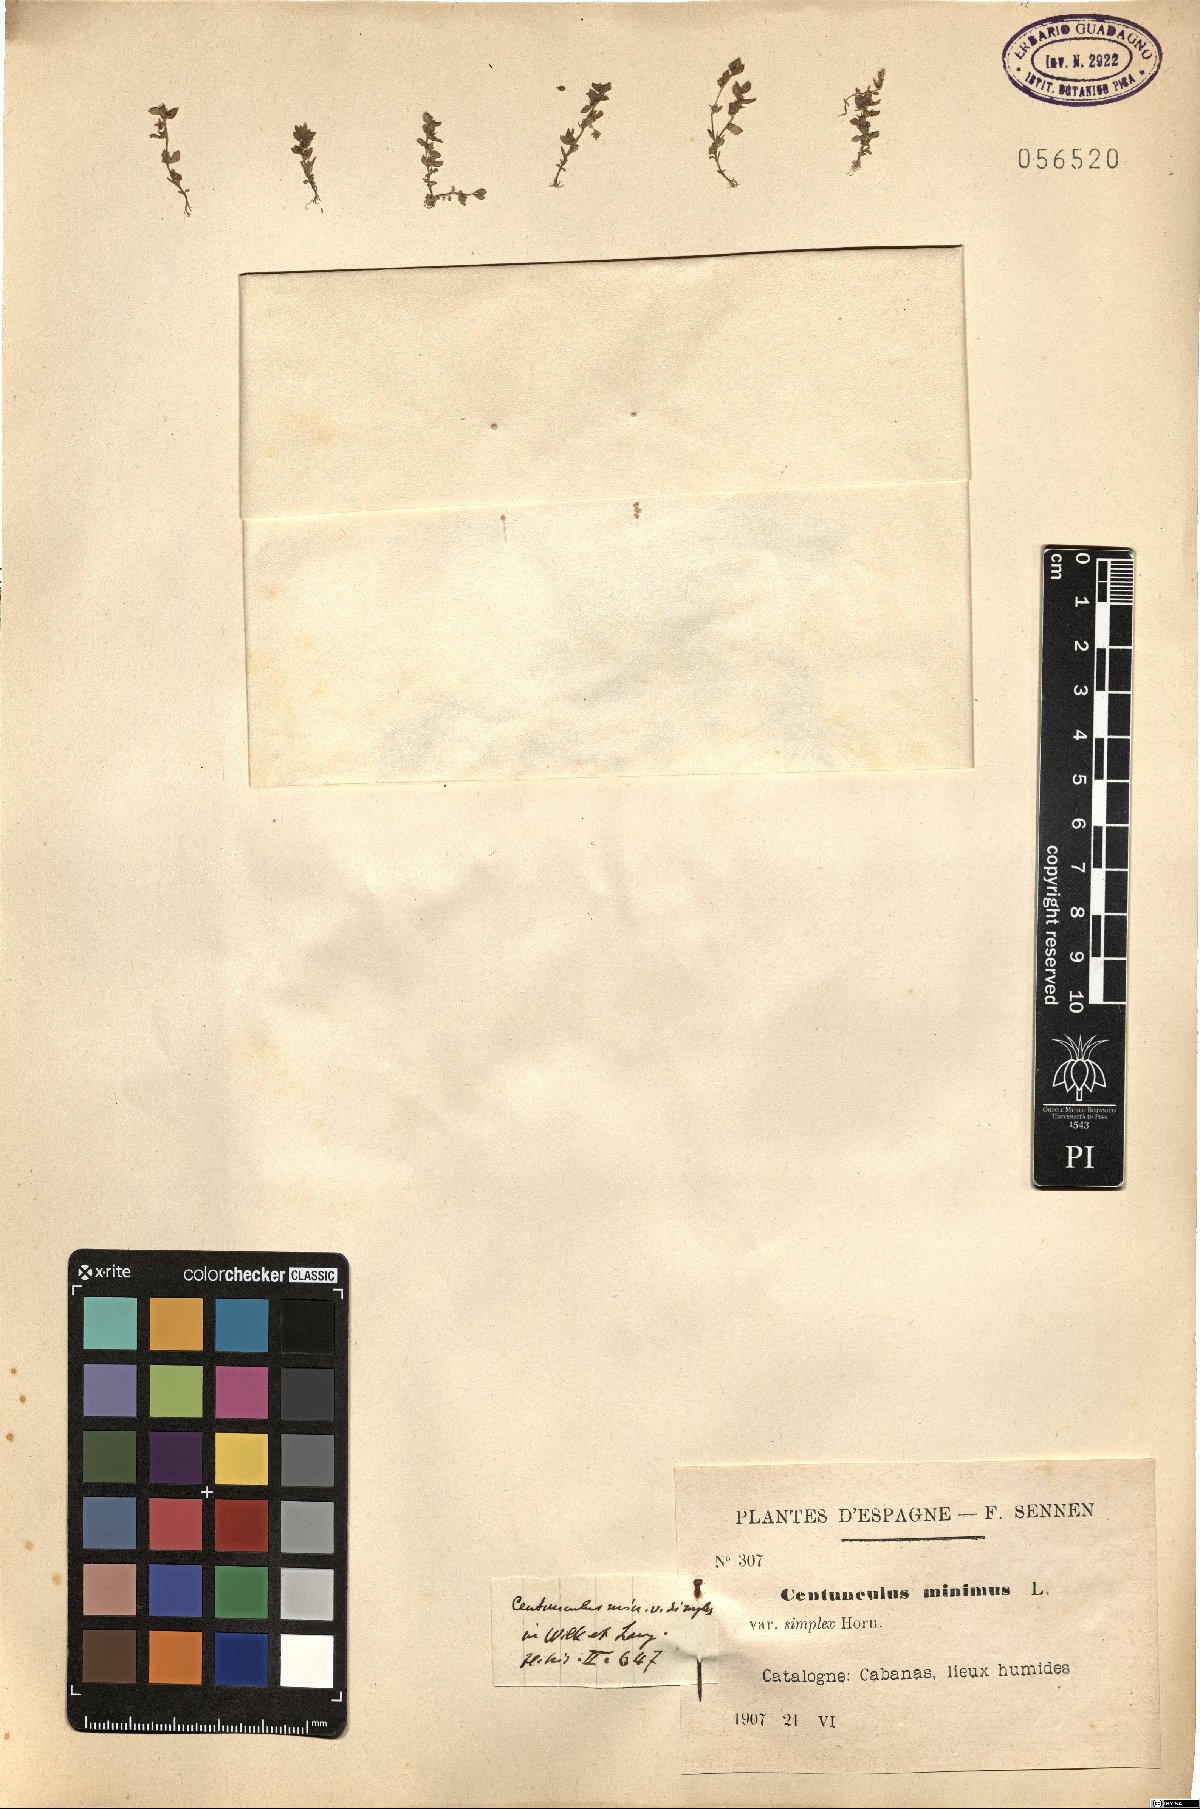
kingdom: Plantae
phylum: Tracheophyta
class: Magnoliopsida
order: Ericales
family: Primulaceae
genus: Lysimachia
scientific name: Lysimachia minima
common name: Chaffweed
